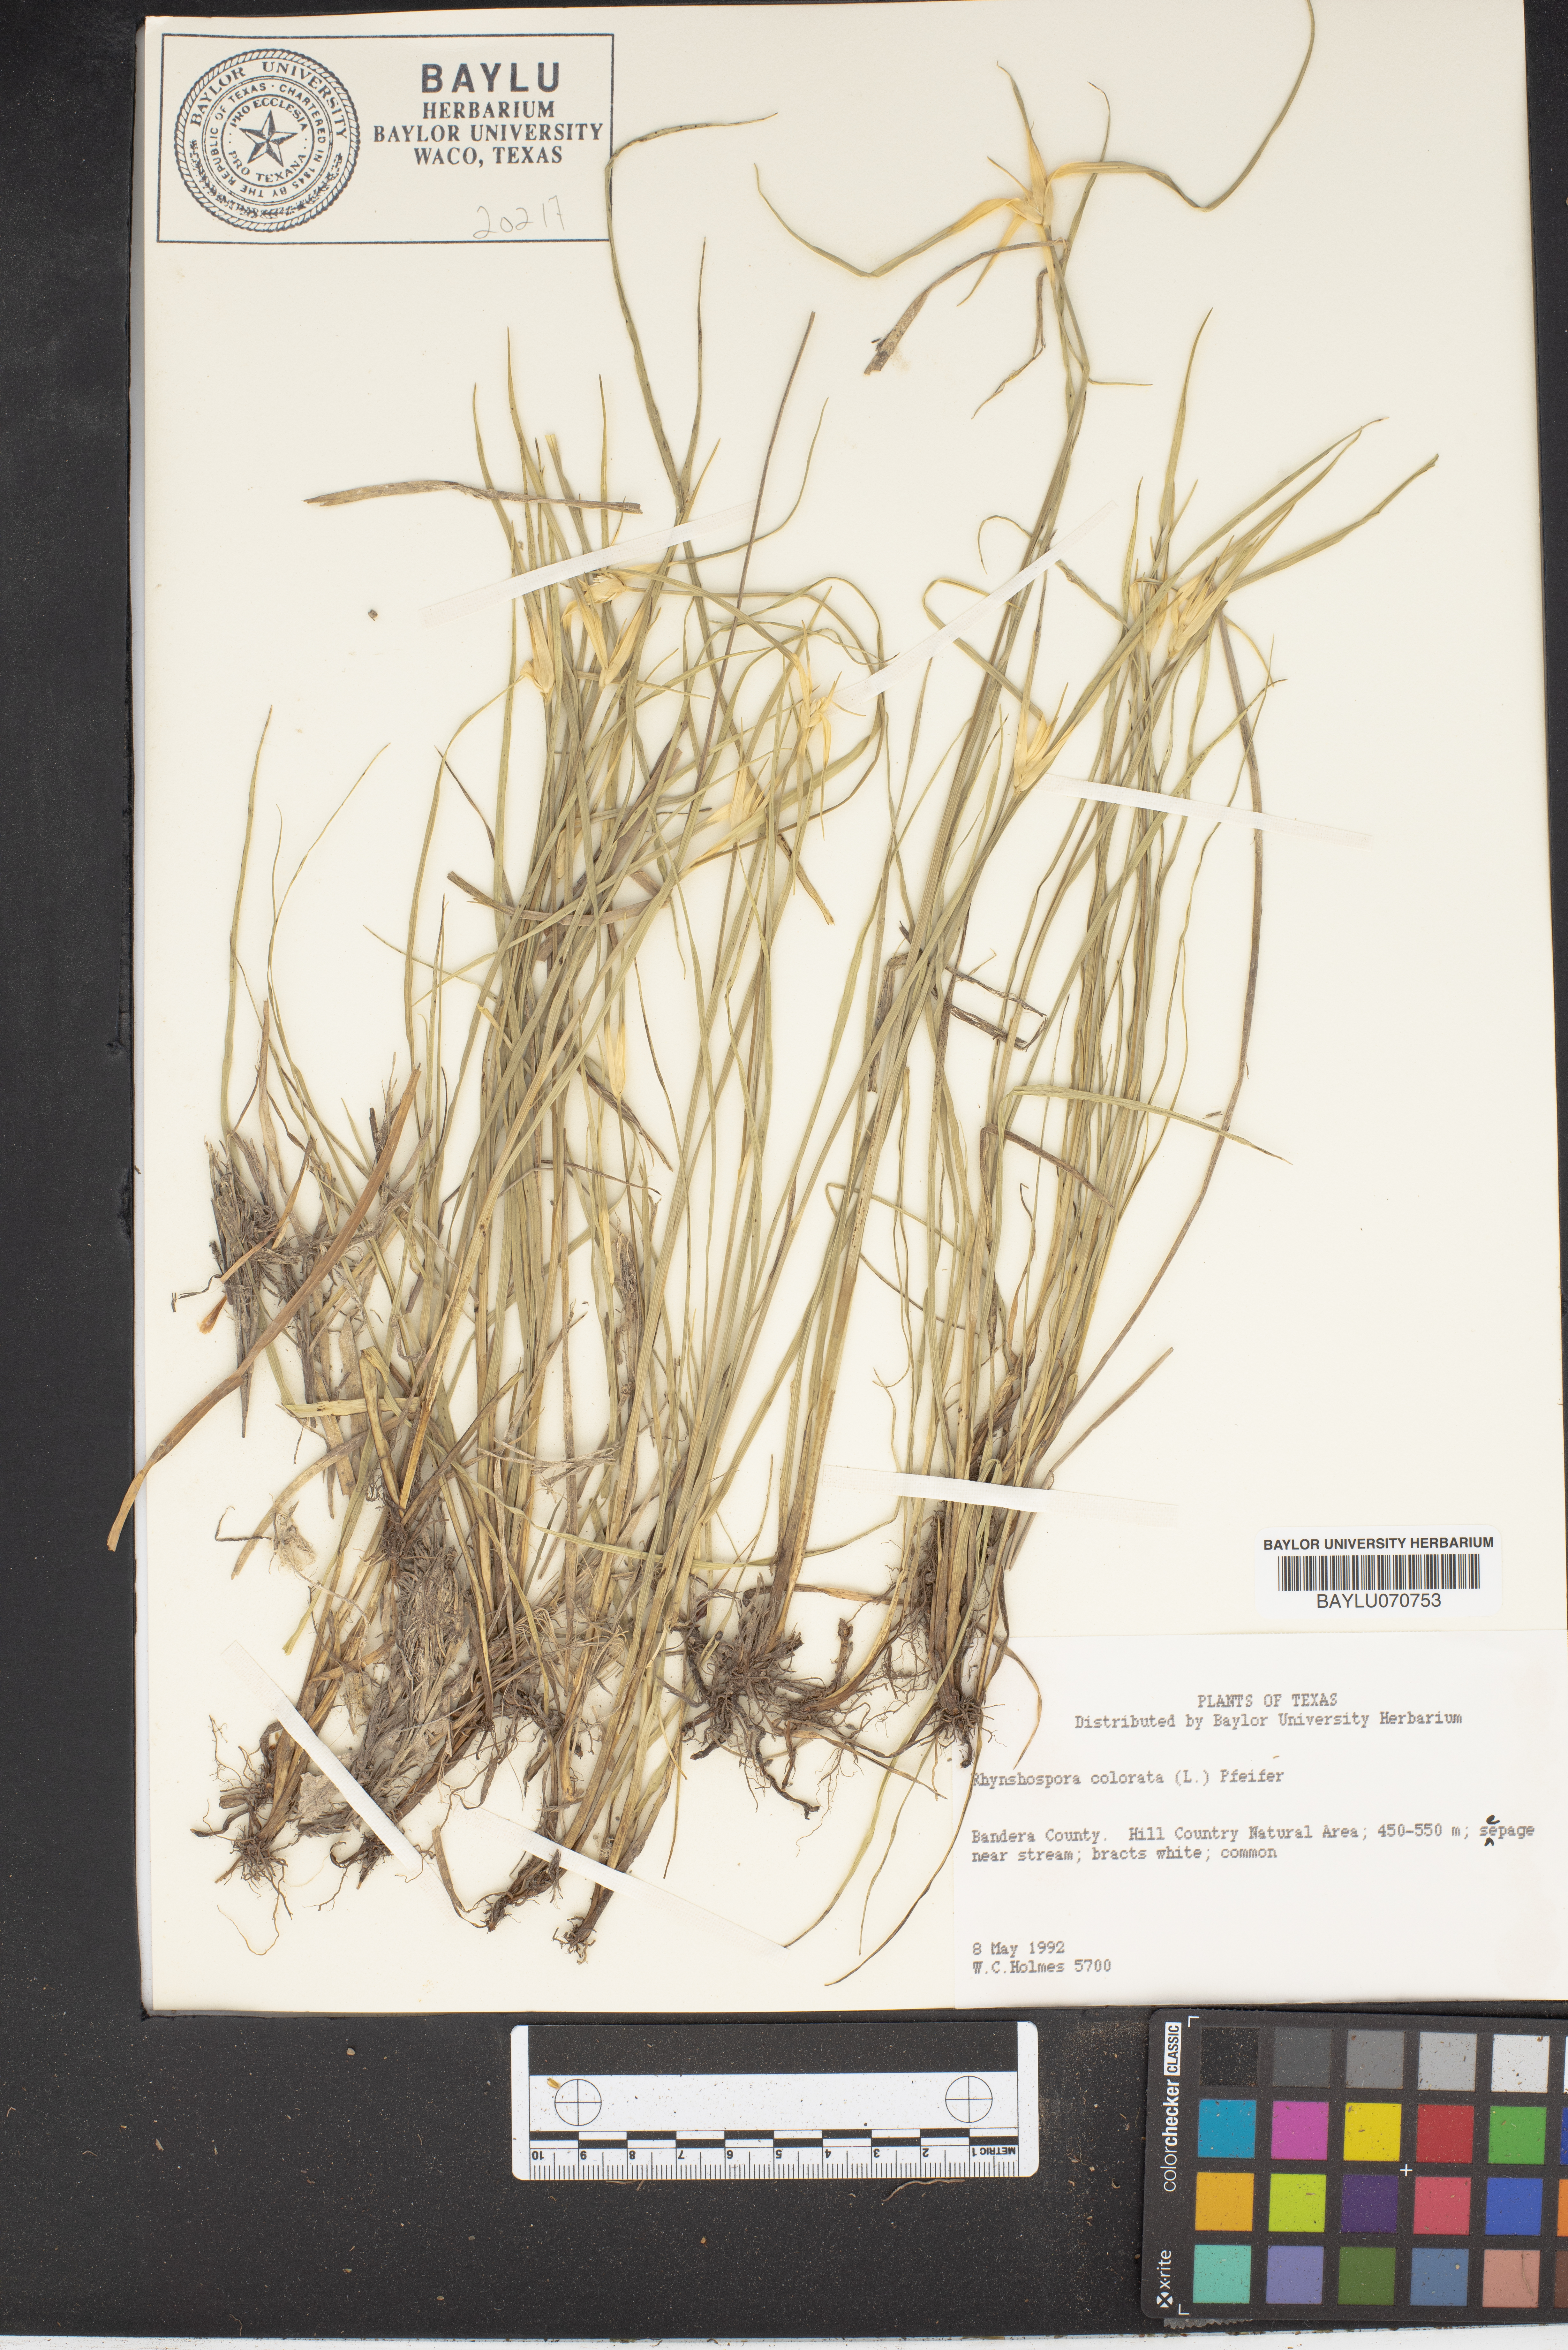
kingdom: Plantae
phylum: Tracheophyta
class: Liliopsida
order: Poales
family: Cyperaceae
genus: Rhynchospora
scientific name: Rhynchospora colorata
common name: Star sedge
